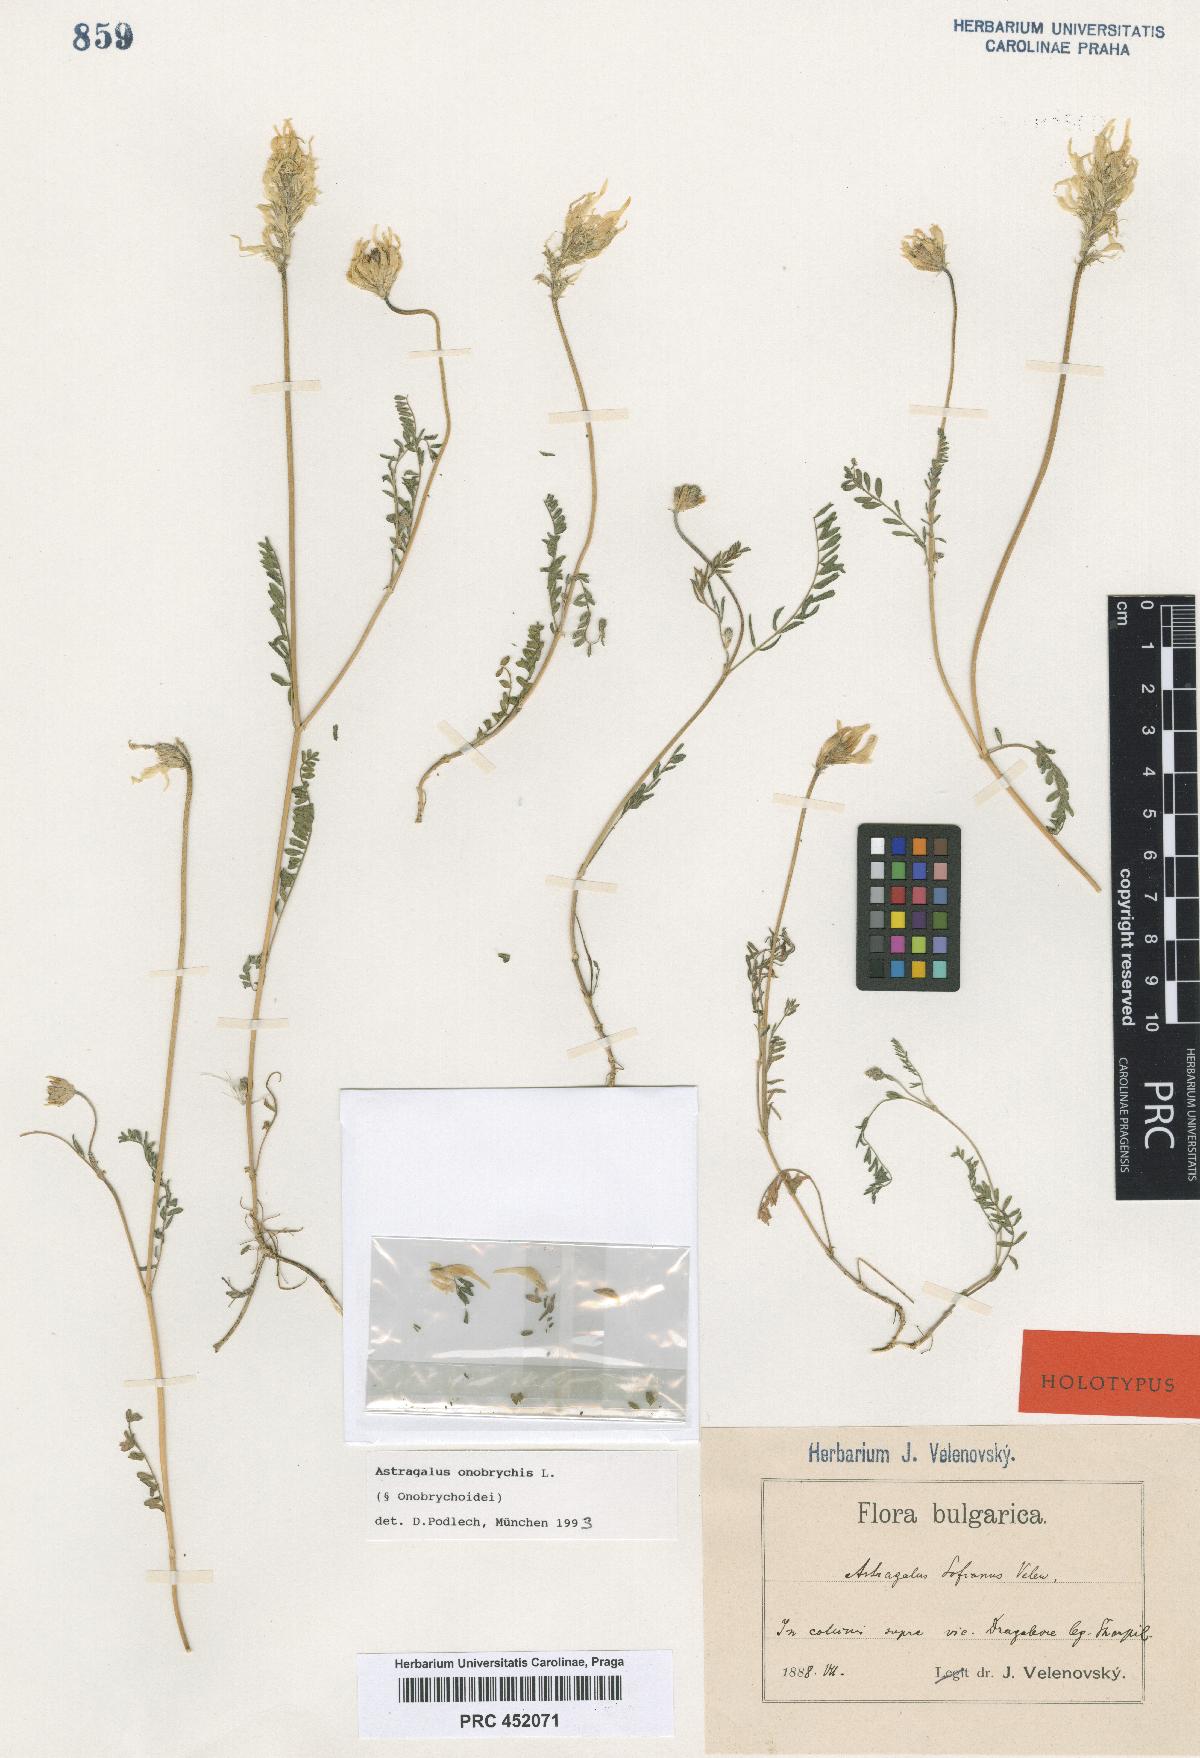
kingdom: Plantae
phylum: Tracheophyta
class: Magnoliopsida
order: Fabales
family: Fabaceae
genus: Astragalus
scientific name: Astragalus onobrychis
